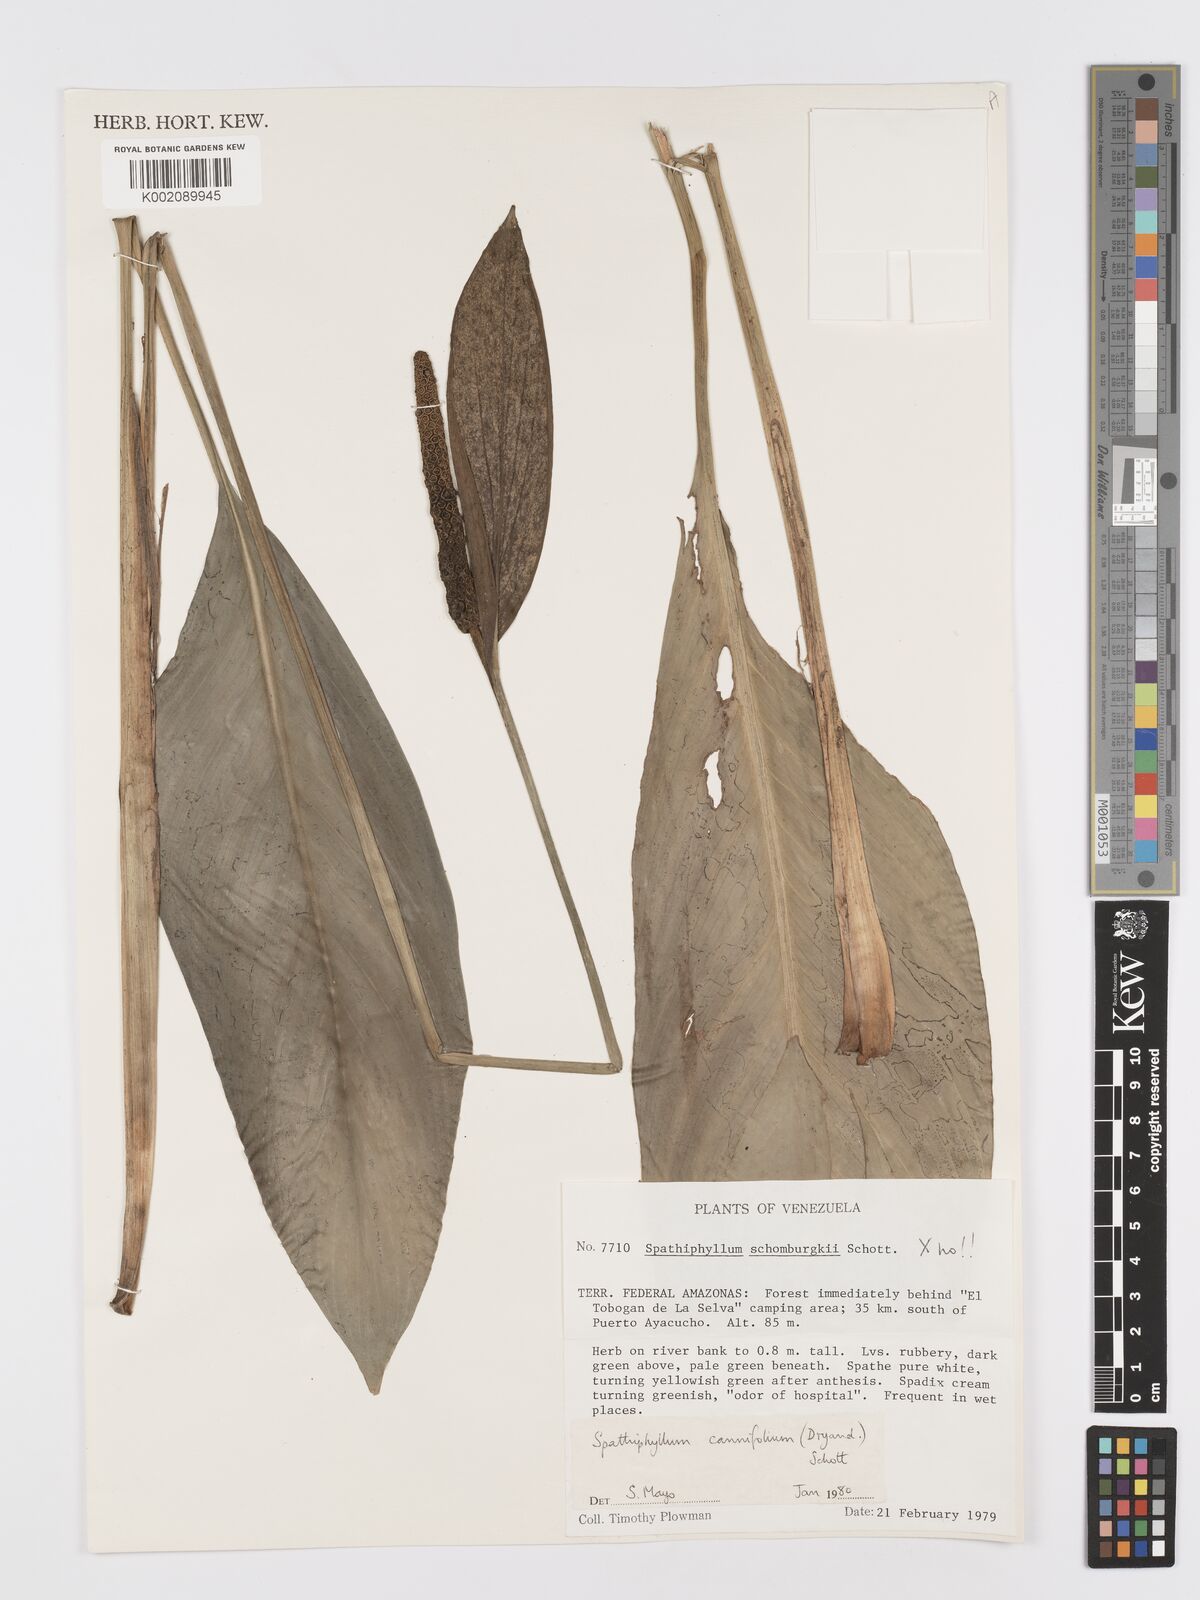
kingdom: Plantae
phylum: Tracheophyta
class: Liliopsida
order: Alismatales
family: Araceae
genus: Spathiphyllum
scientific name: Spathiphyllum cannifolium
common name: Spatheflower
